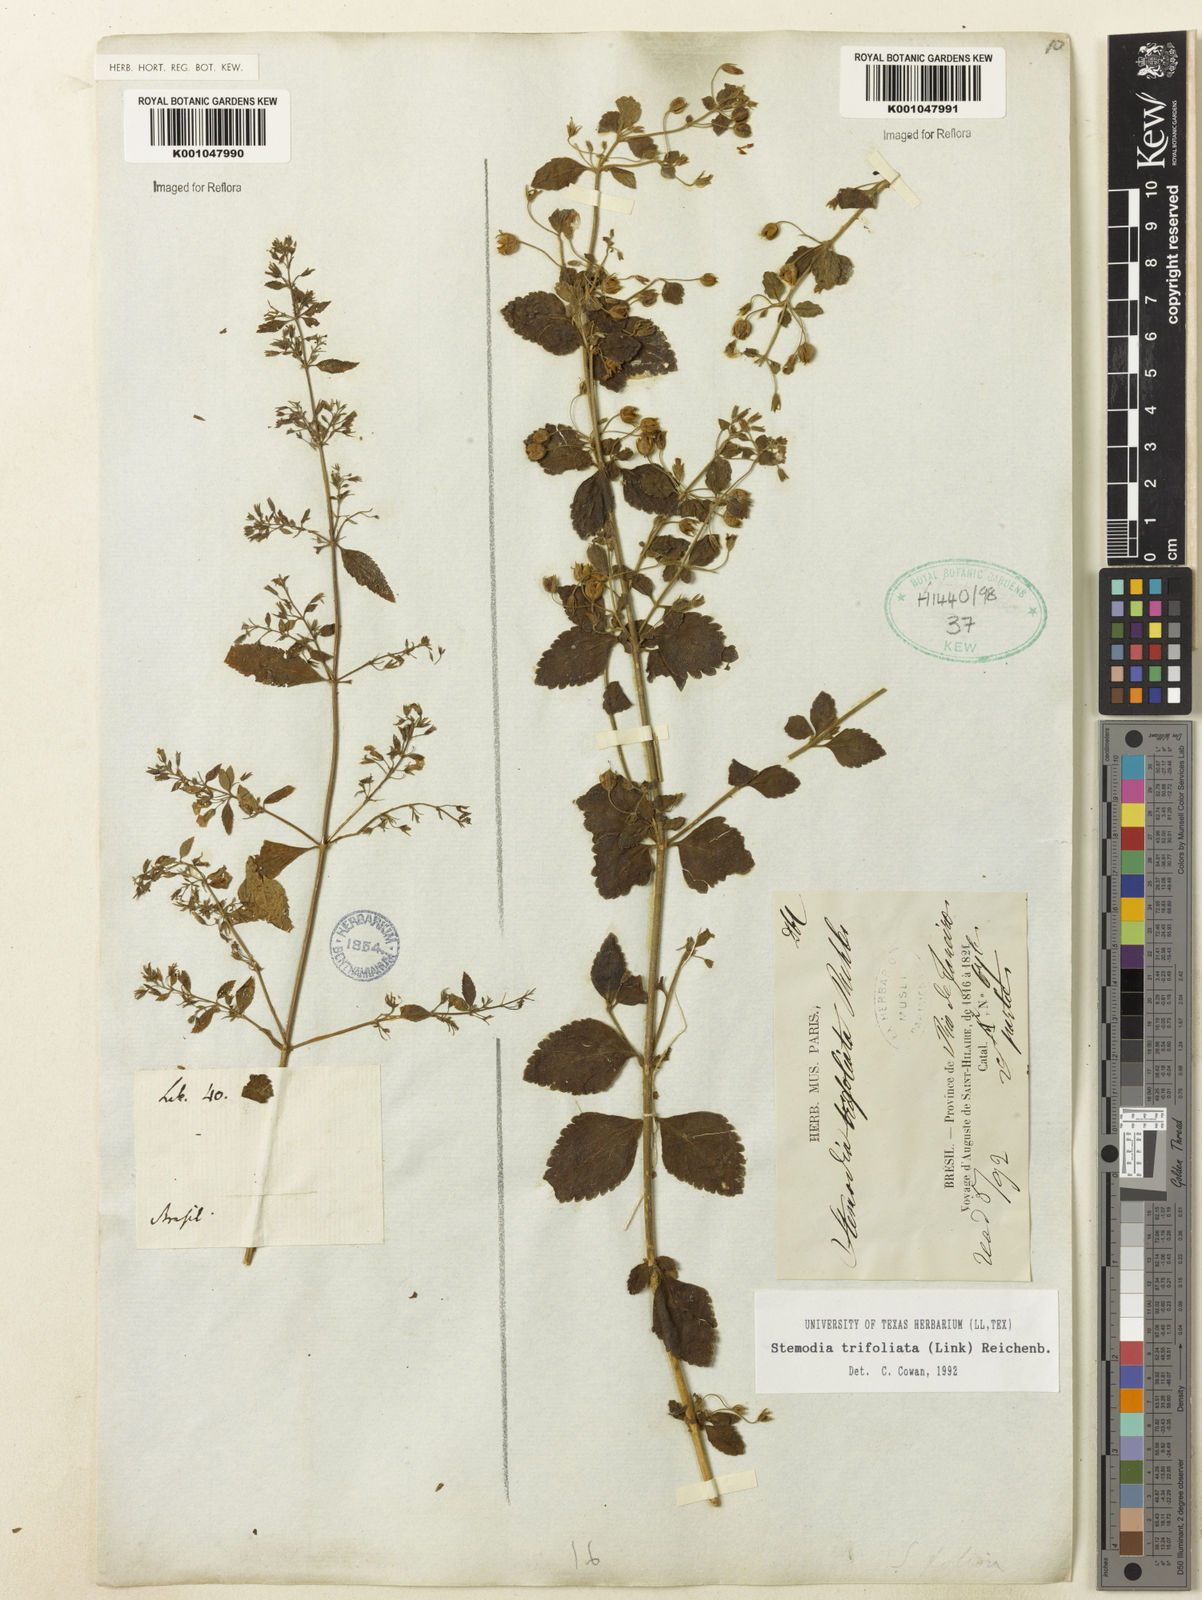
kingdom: Plantae
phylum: Tracheophyta
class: Magnoliopsida
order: Lamiales
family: Plantaginaceae
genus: Stemodia
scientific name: Stemodia trifoliata
